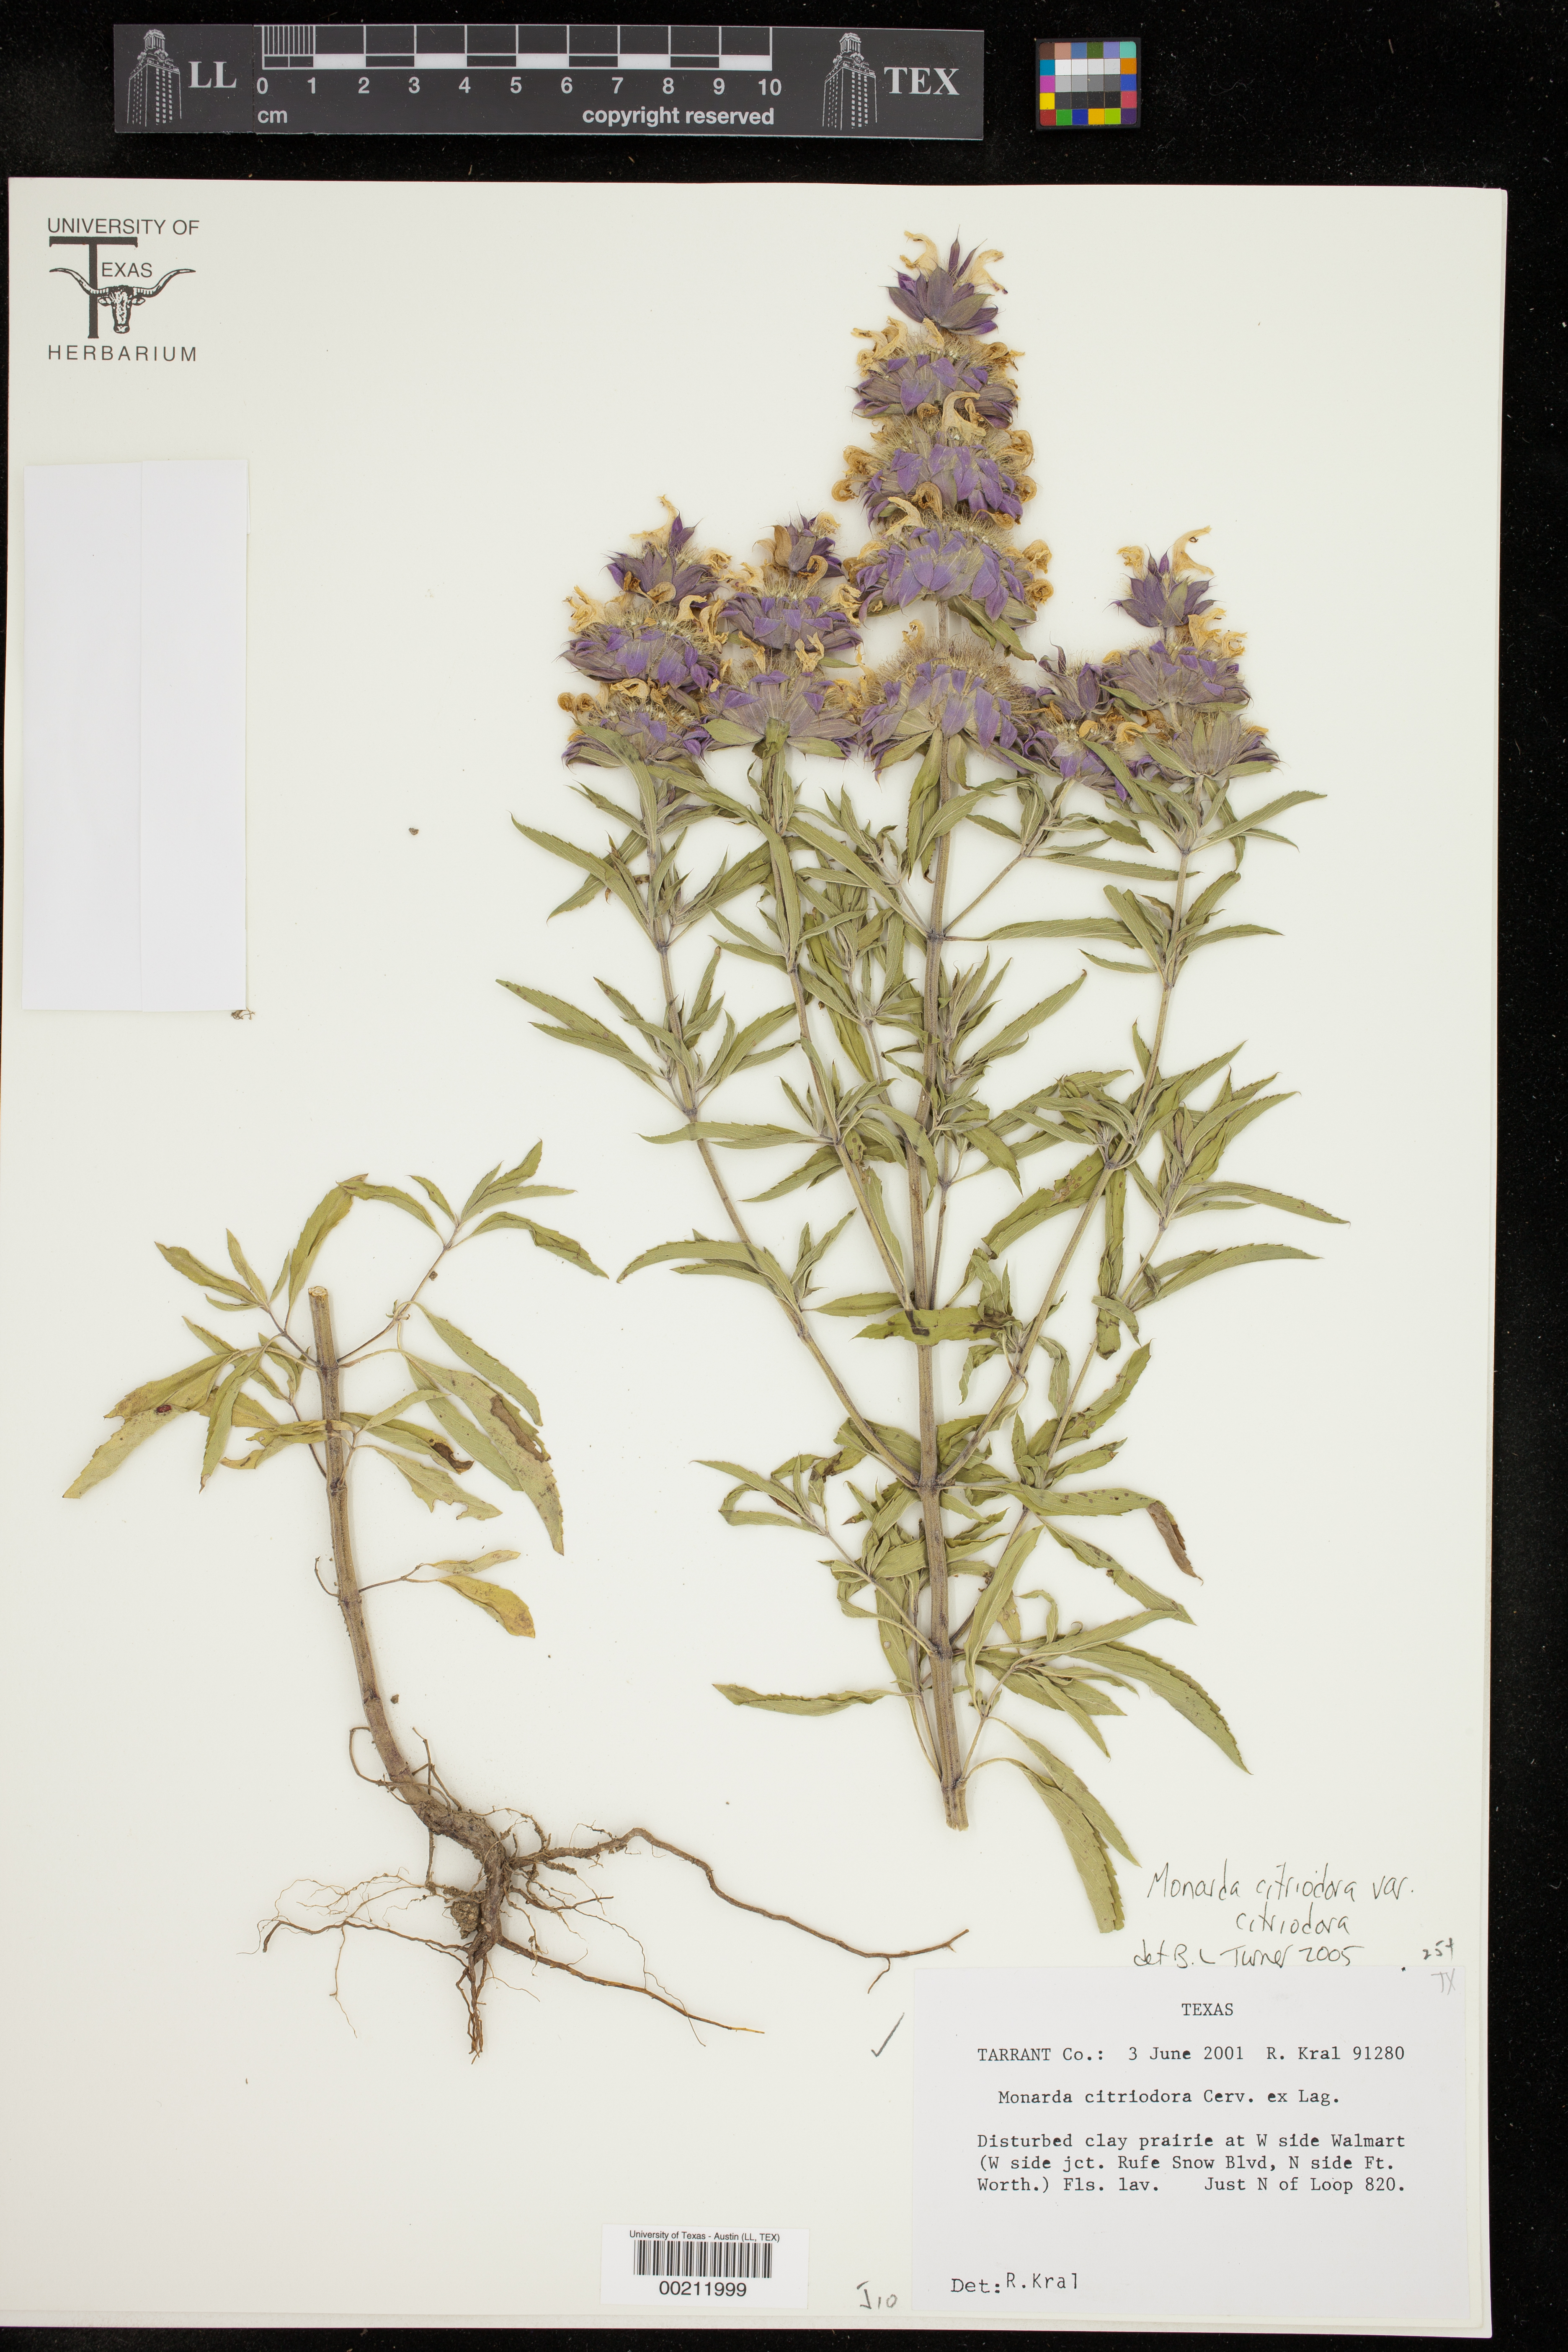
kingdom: Plantae
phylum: Tracheophyta
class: Magnoliopsida
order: Lamiales
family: Lamiaceae
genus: Monarda
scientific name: Monarda citriodora
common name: Lemon beebalm
